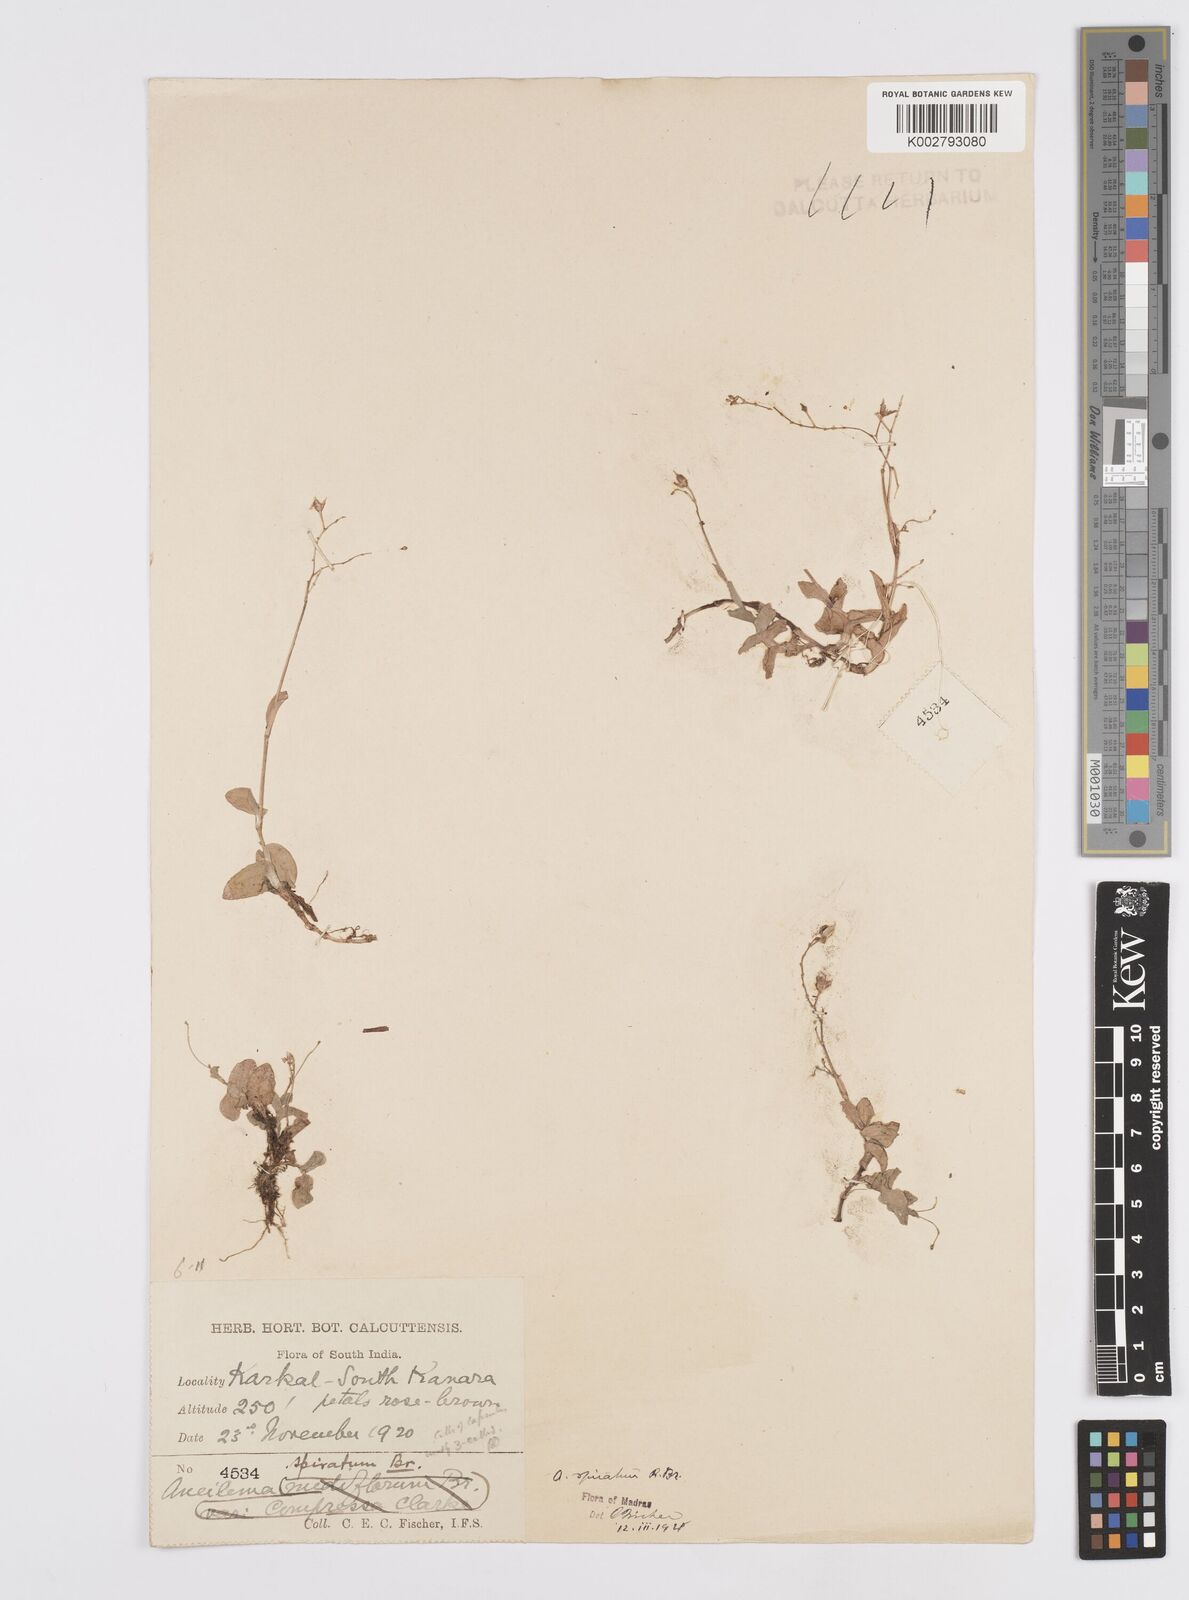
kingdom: Plantae
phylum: Tracheophyta
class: Liliopsida
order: Commelinales
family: Commelinaceae
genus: Murdannia
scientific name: Murdannia spirata
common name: Asiatic dewflower
